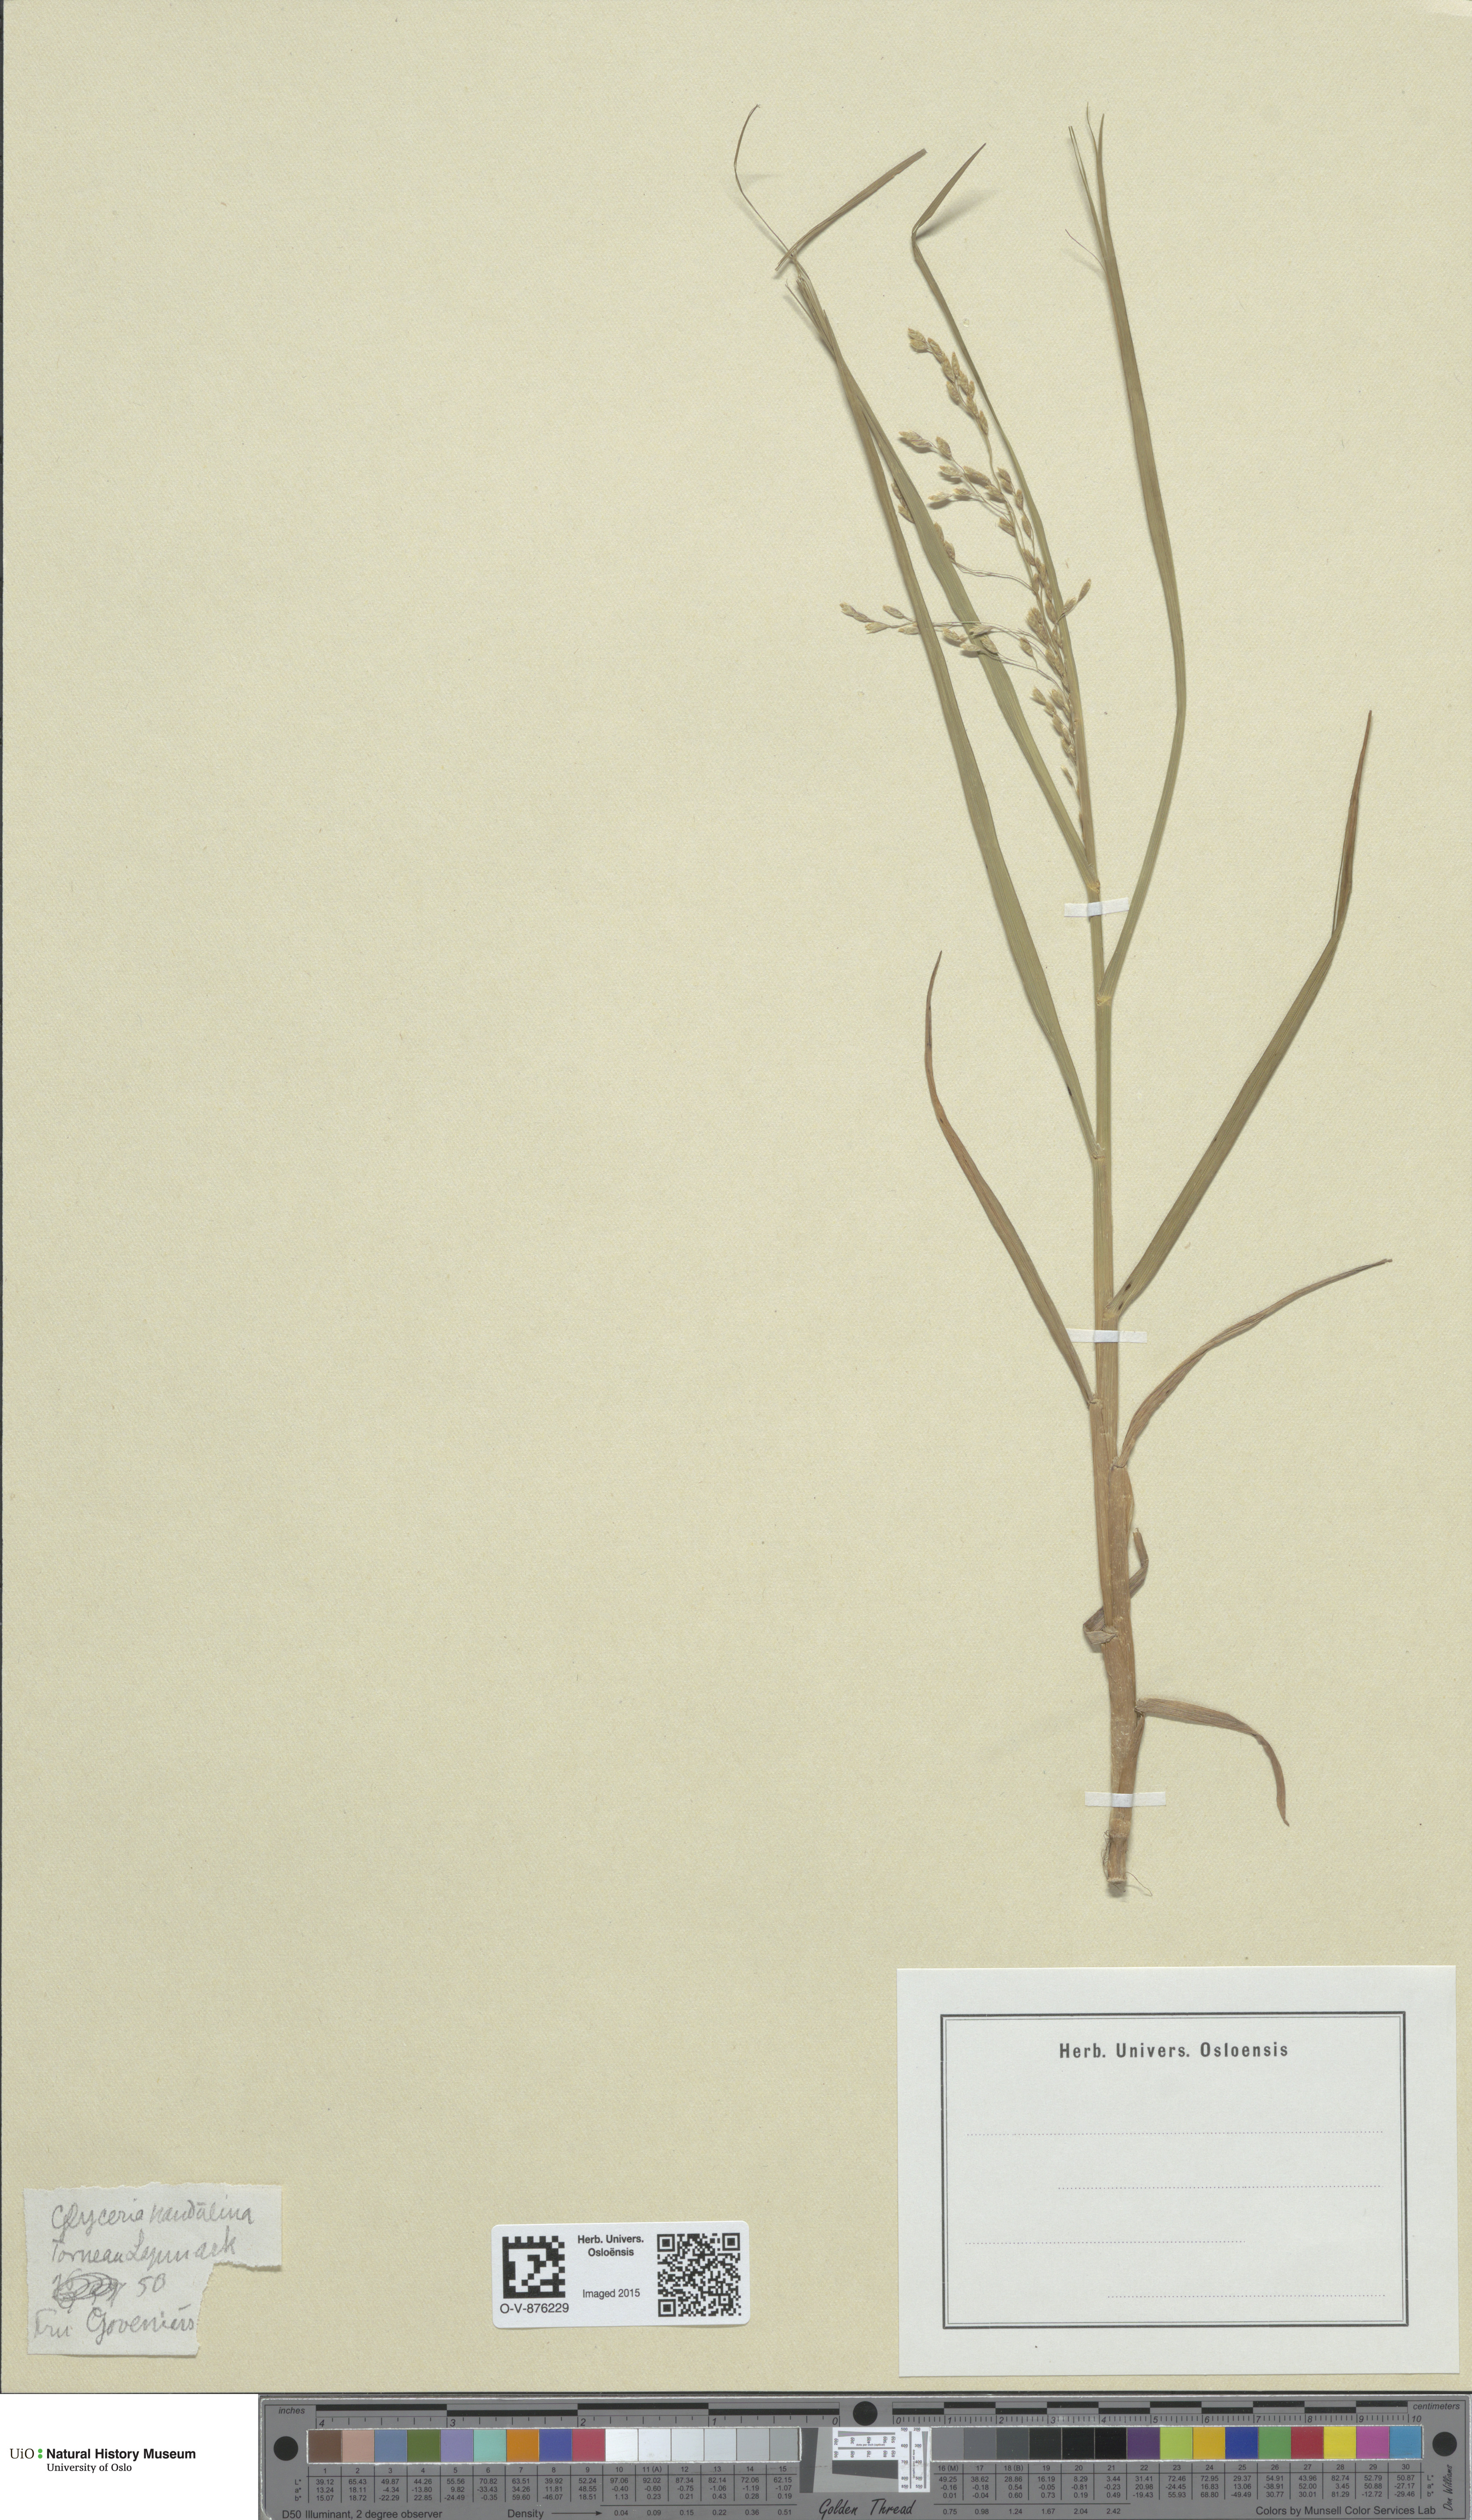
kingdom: Plantae
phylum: Tracheophyta
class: Liliopsida
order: Poales
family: Poaceae
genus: Dupontia
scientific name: Dupontia fulva
